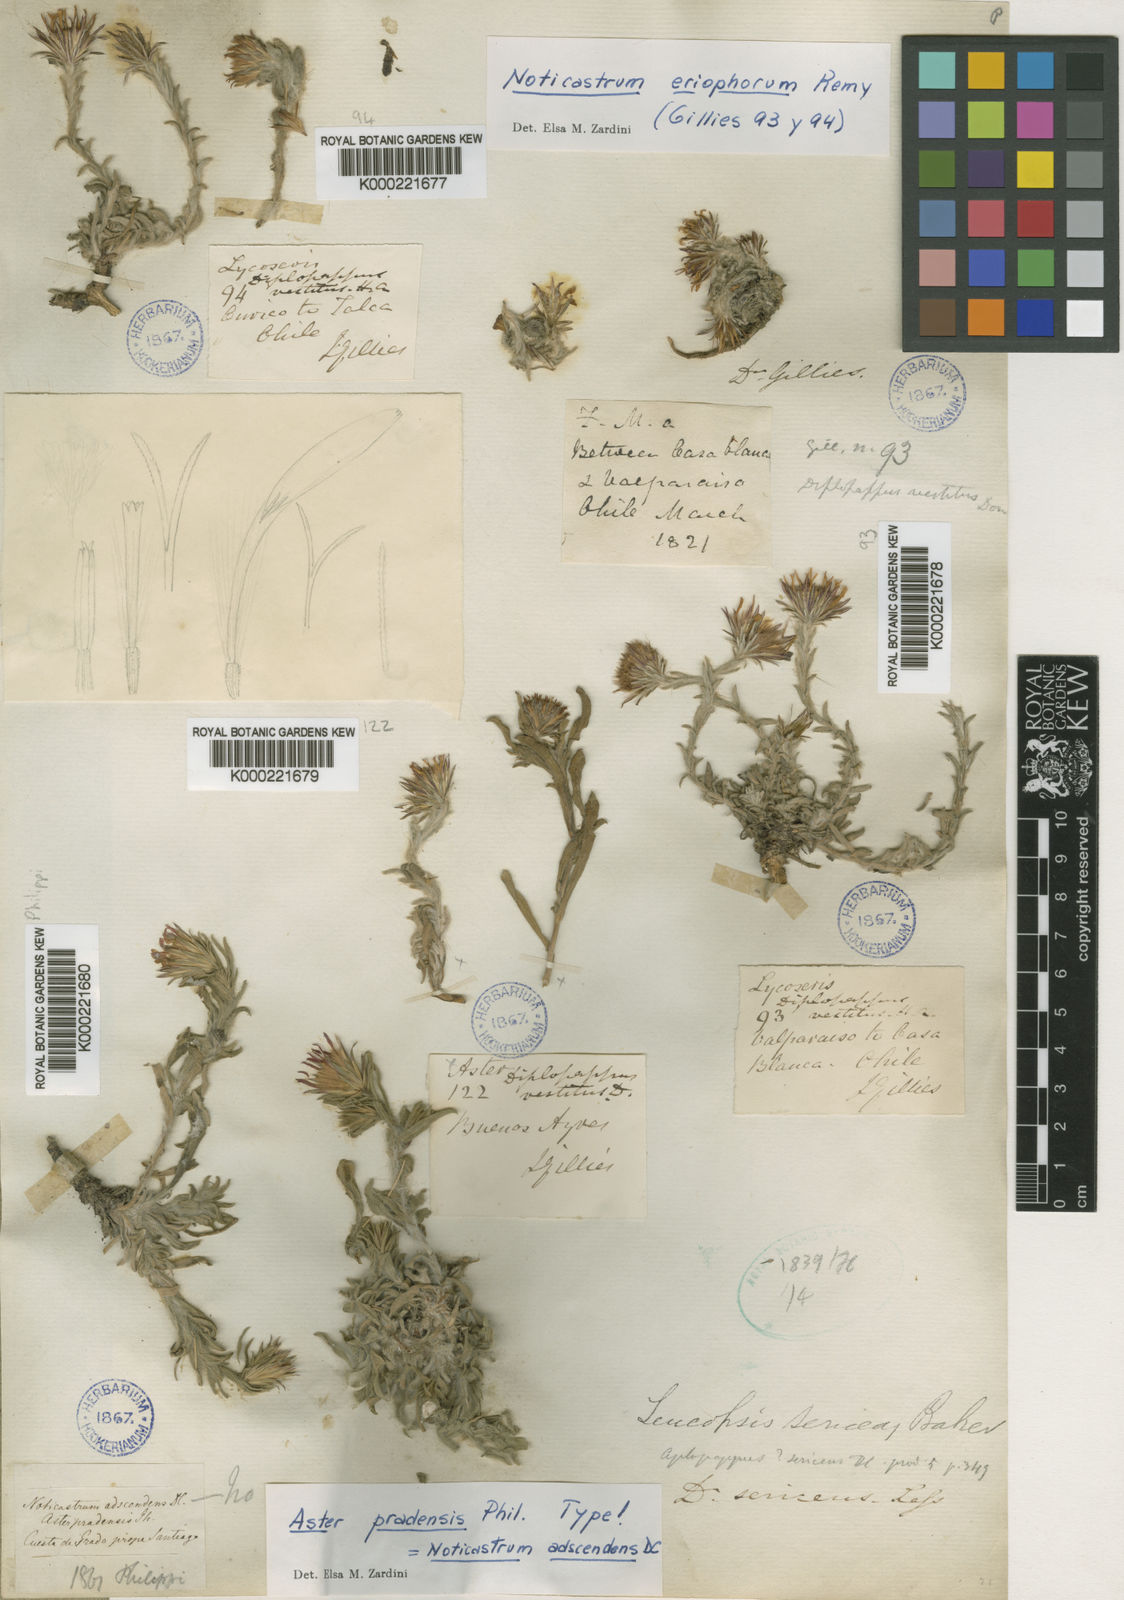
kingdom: Plantae
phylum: Tracheophyta
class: Magnoliopsida
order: Asterales
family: Asteraceae
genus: Noticastrum
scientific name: Noticastrum sericeum
